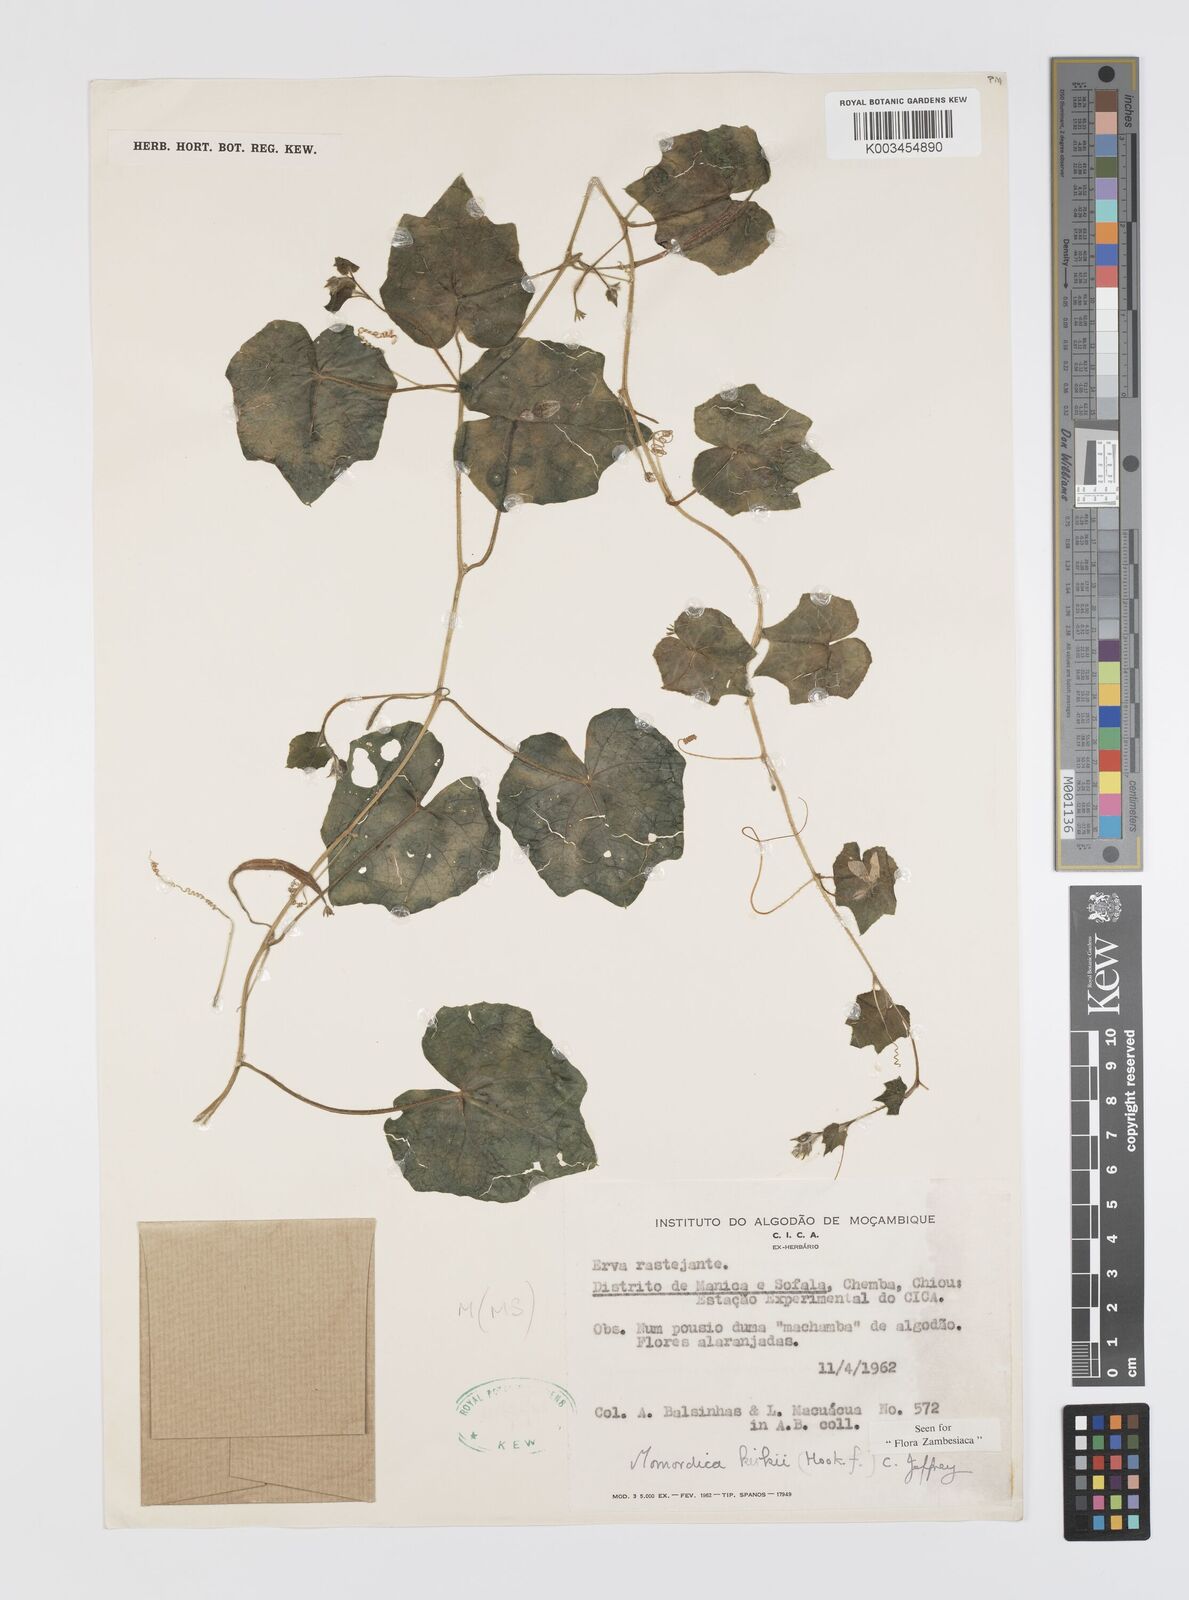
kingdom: Plantae
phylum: Tracheophyta
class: Magnoliopsida
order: Cucurbitales
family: Cucurbitaceae
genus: Momordica
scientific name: Momordica kirkii
